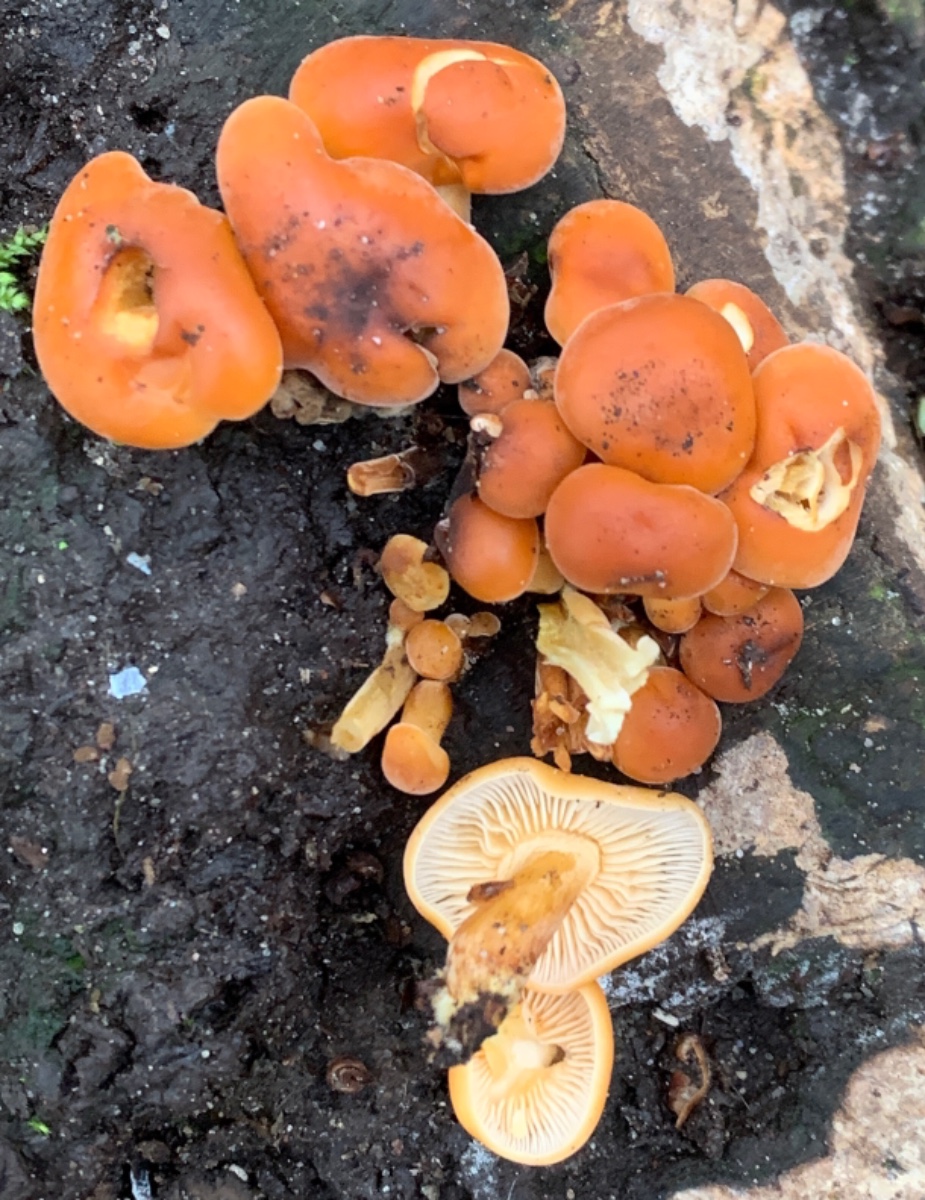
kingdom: Fungi
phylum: Basidiomycota
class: Agaricomycetes
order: Agaricales
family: Physalacriaceae
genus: Flammulina
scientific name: Flammulina velutipes
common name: gul fløjlsfod
